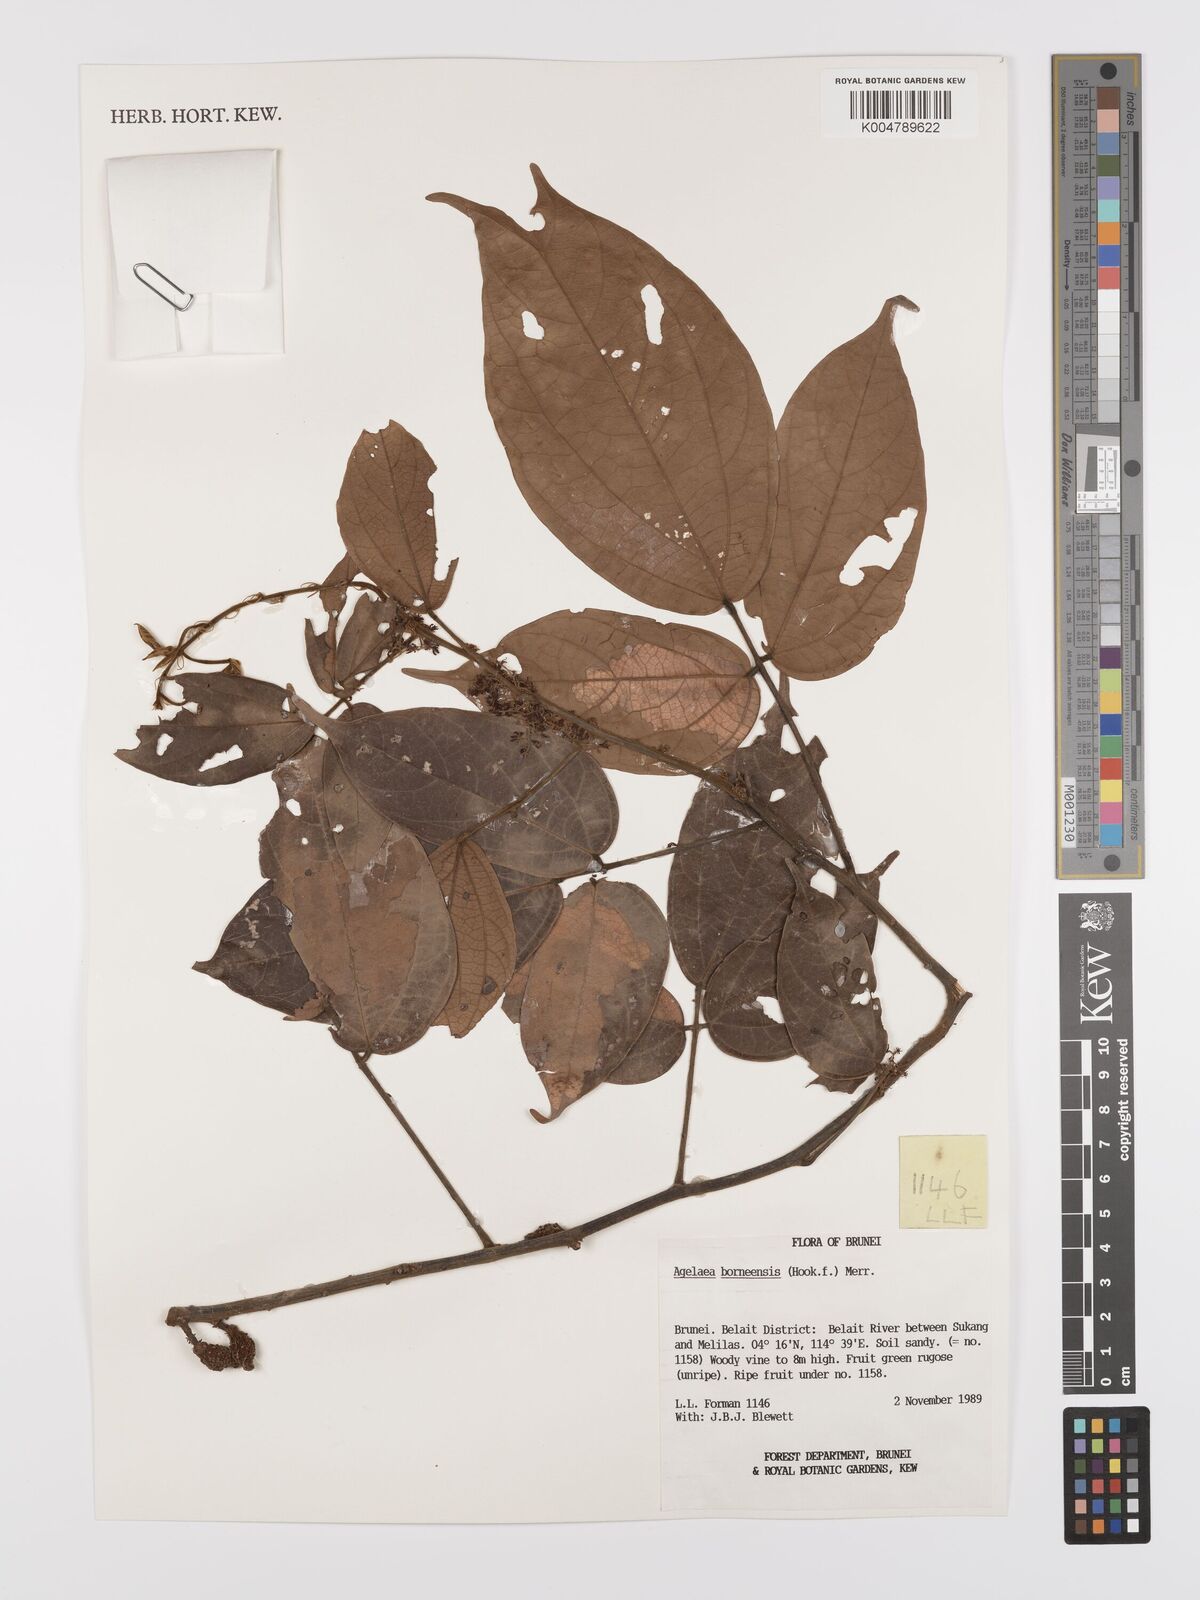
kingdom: Plantae
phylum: Tracheophyta
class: Magnoliopsida
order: Oxalidales
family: Connaraceae
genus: Agelaea
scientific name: Agelaea borneensis
